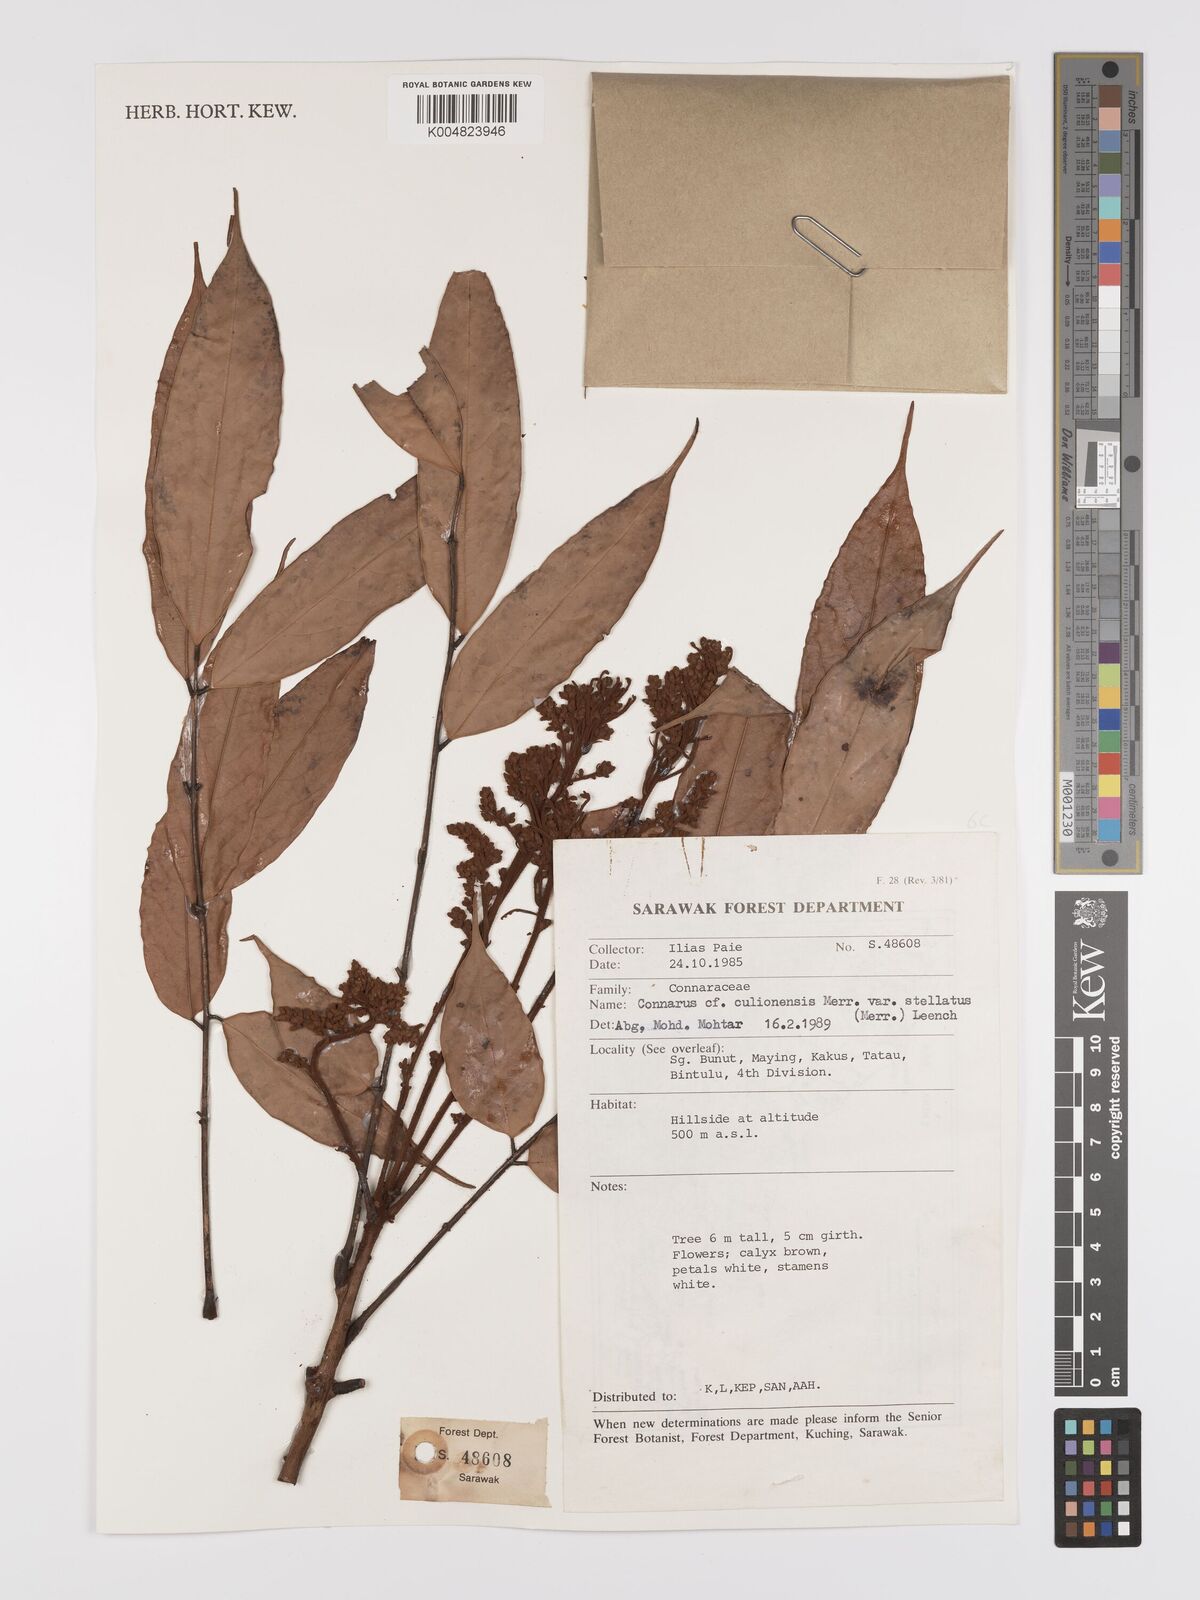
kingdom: Plantae
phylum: Tracheophyta
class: Magnoliopsida
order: Oxalidales
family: Connaraceae
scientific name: Connaraceae
